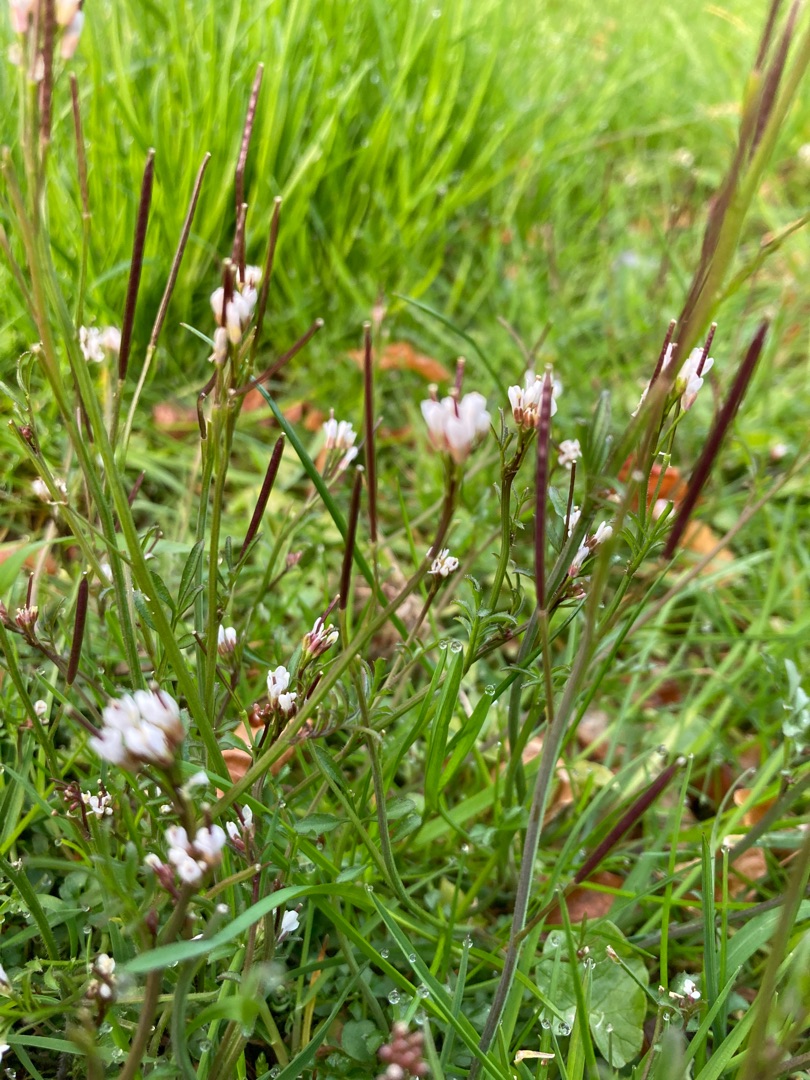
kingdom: Plantae
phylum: Tracheophyta
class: Magnoliopsida
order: Brassicales
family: Brassicaceae
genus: Cardamine
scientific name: Cardamine hirsuta
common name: Roset-springklap
